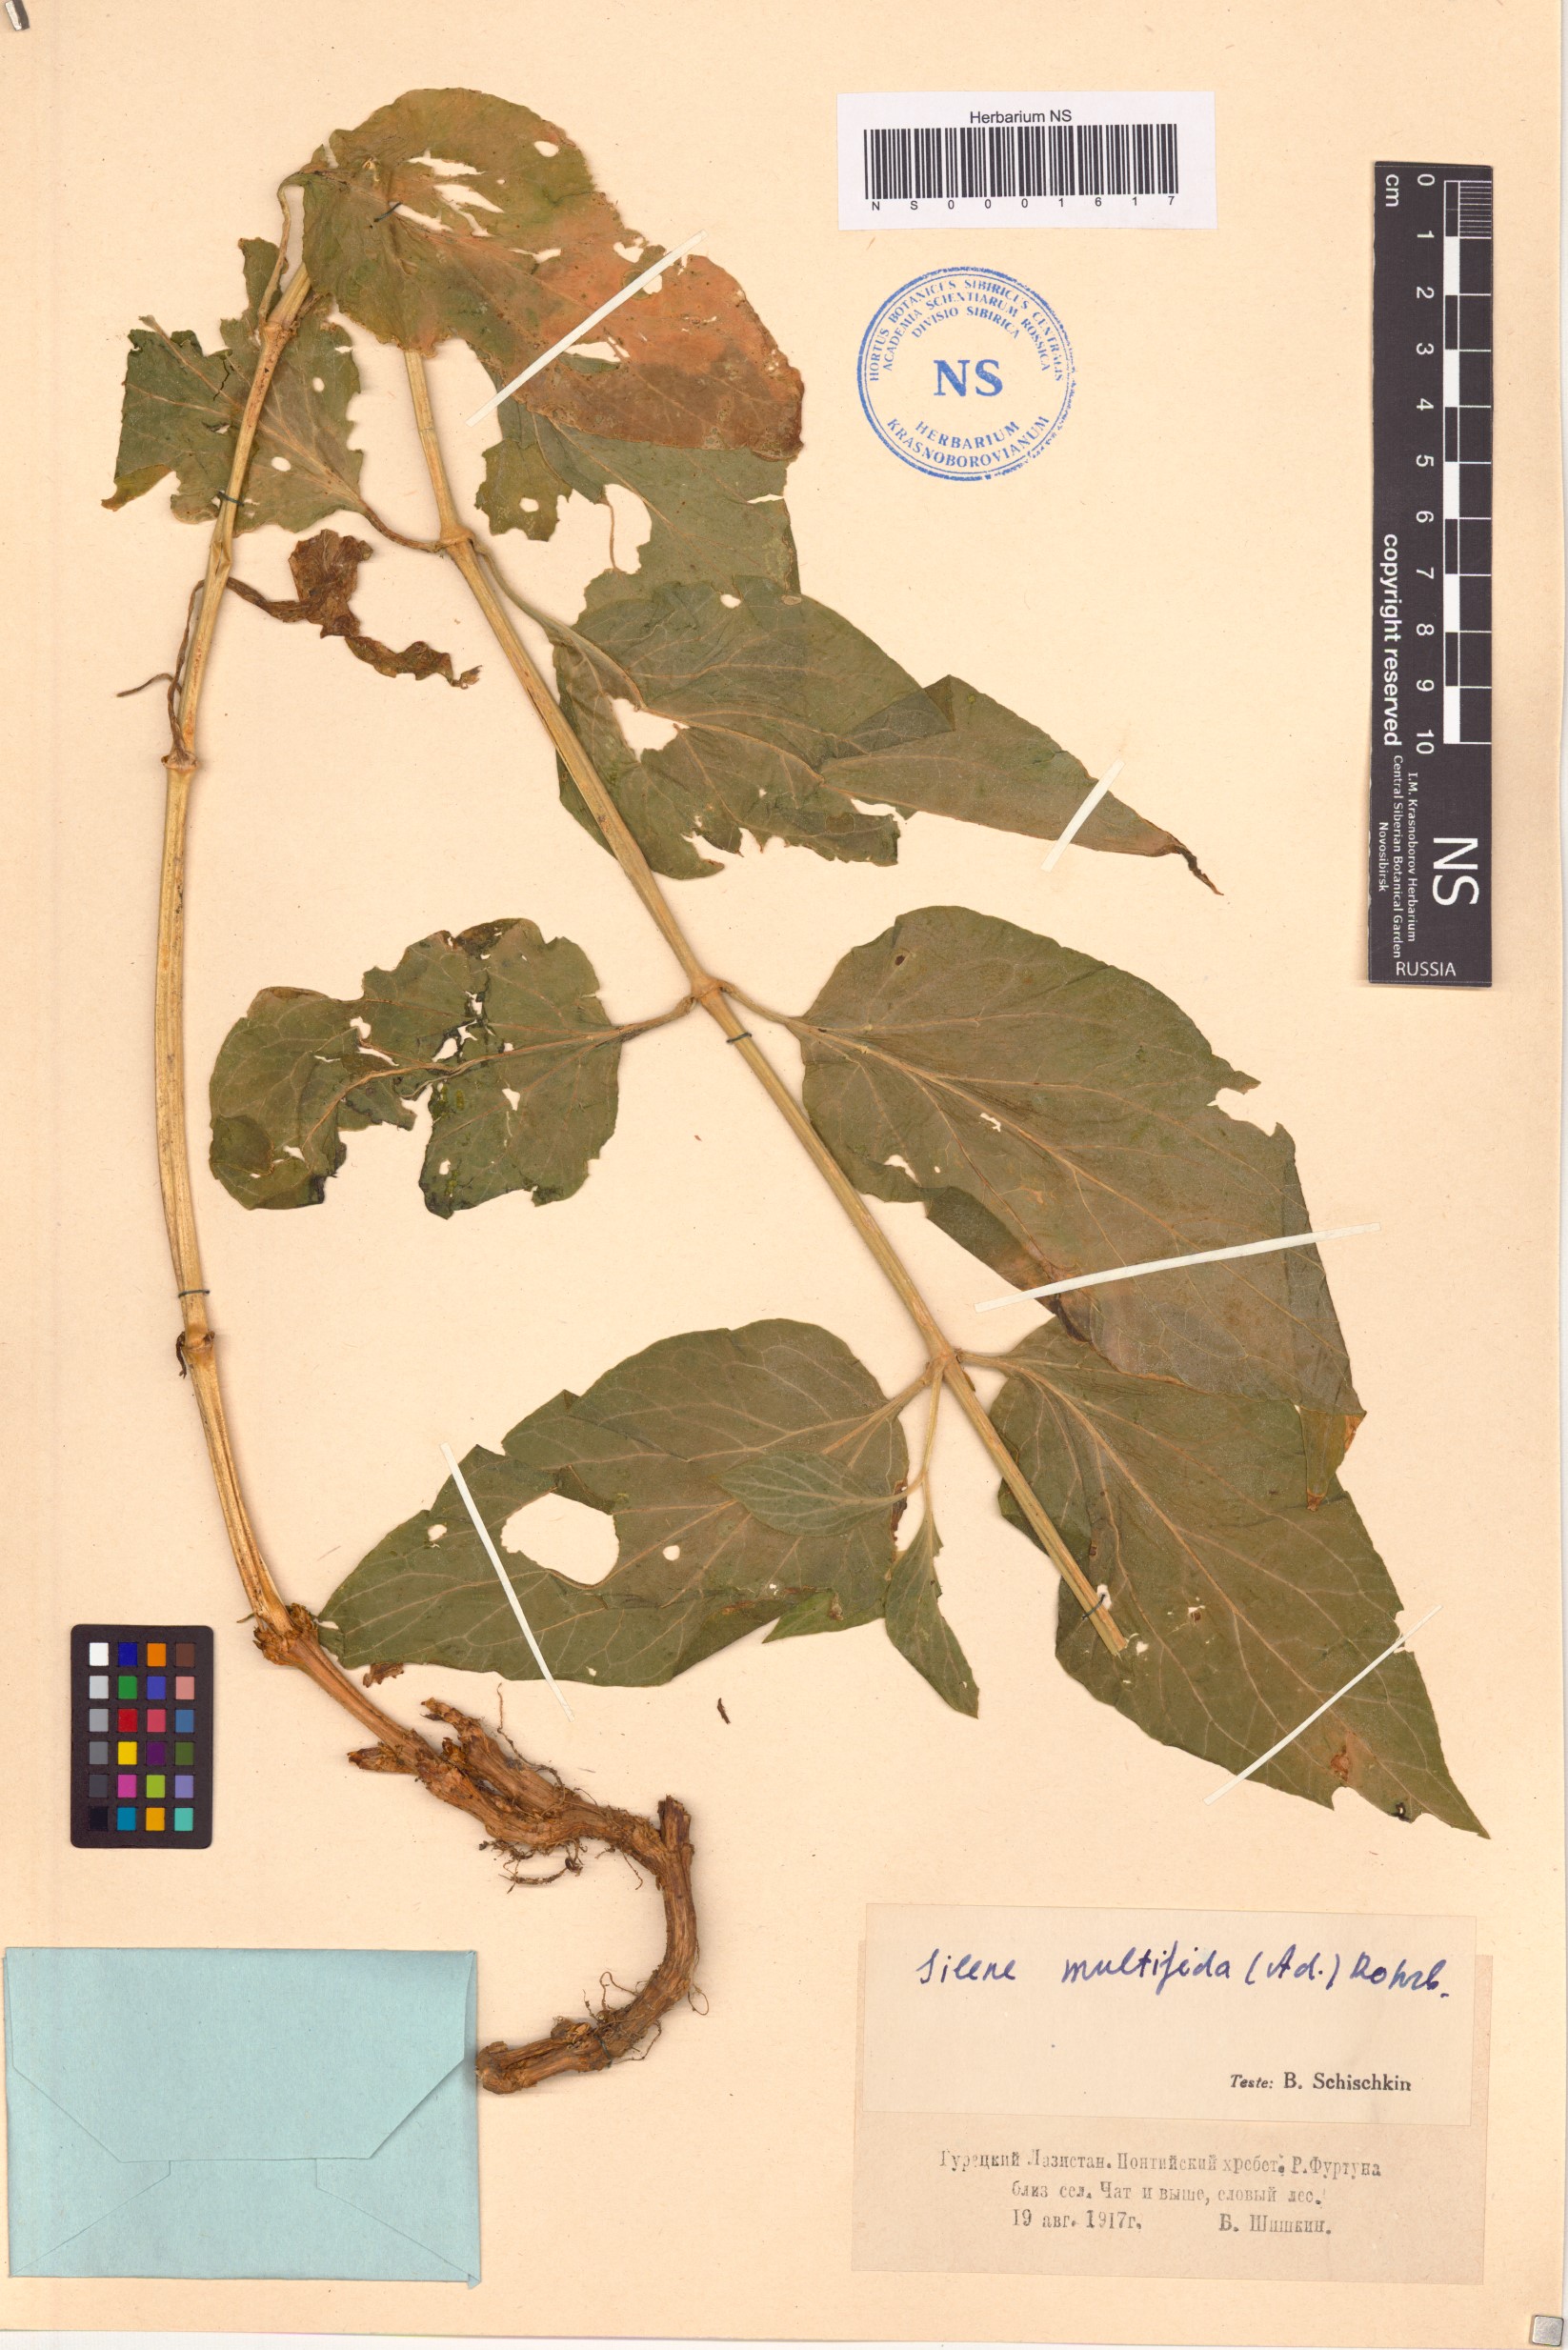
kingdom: Plantae
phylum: Tracheophyta
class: Magnoliopsida
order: Caryophyllales
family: Caryophyllaceae
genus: Silene
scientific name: Silene macrophylla
